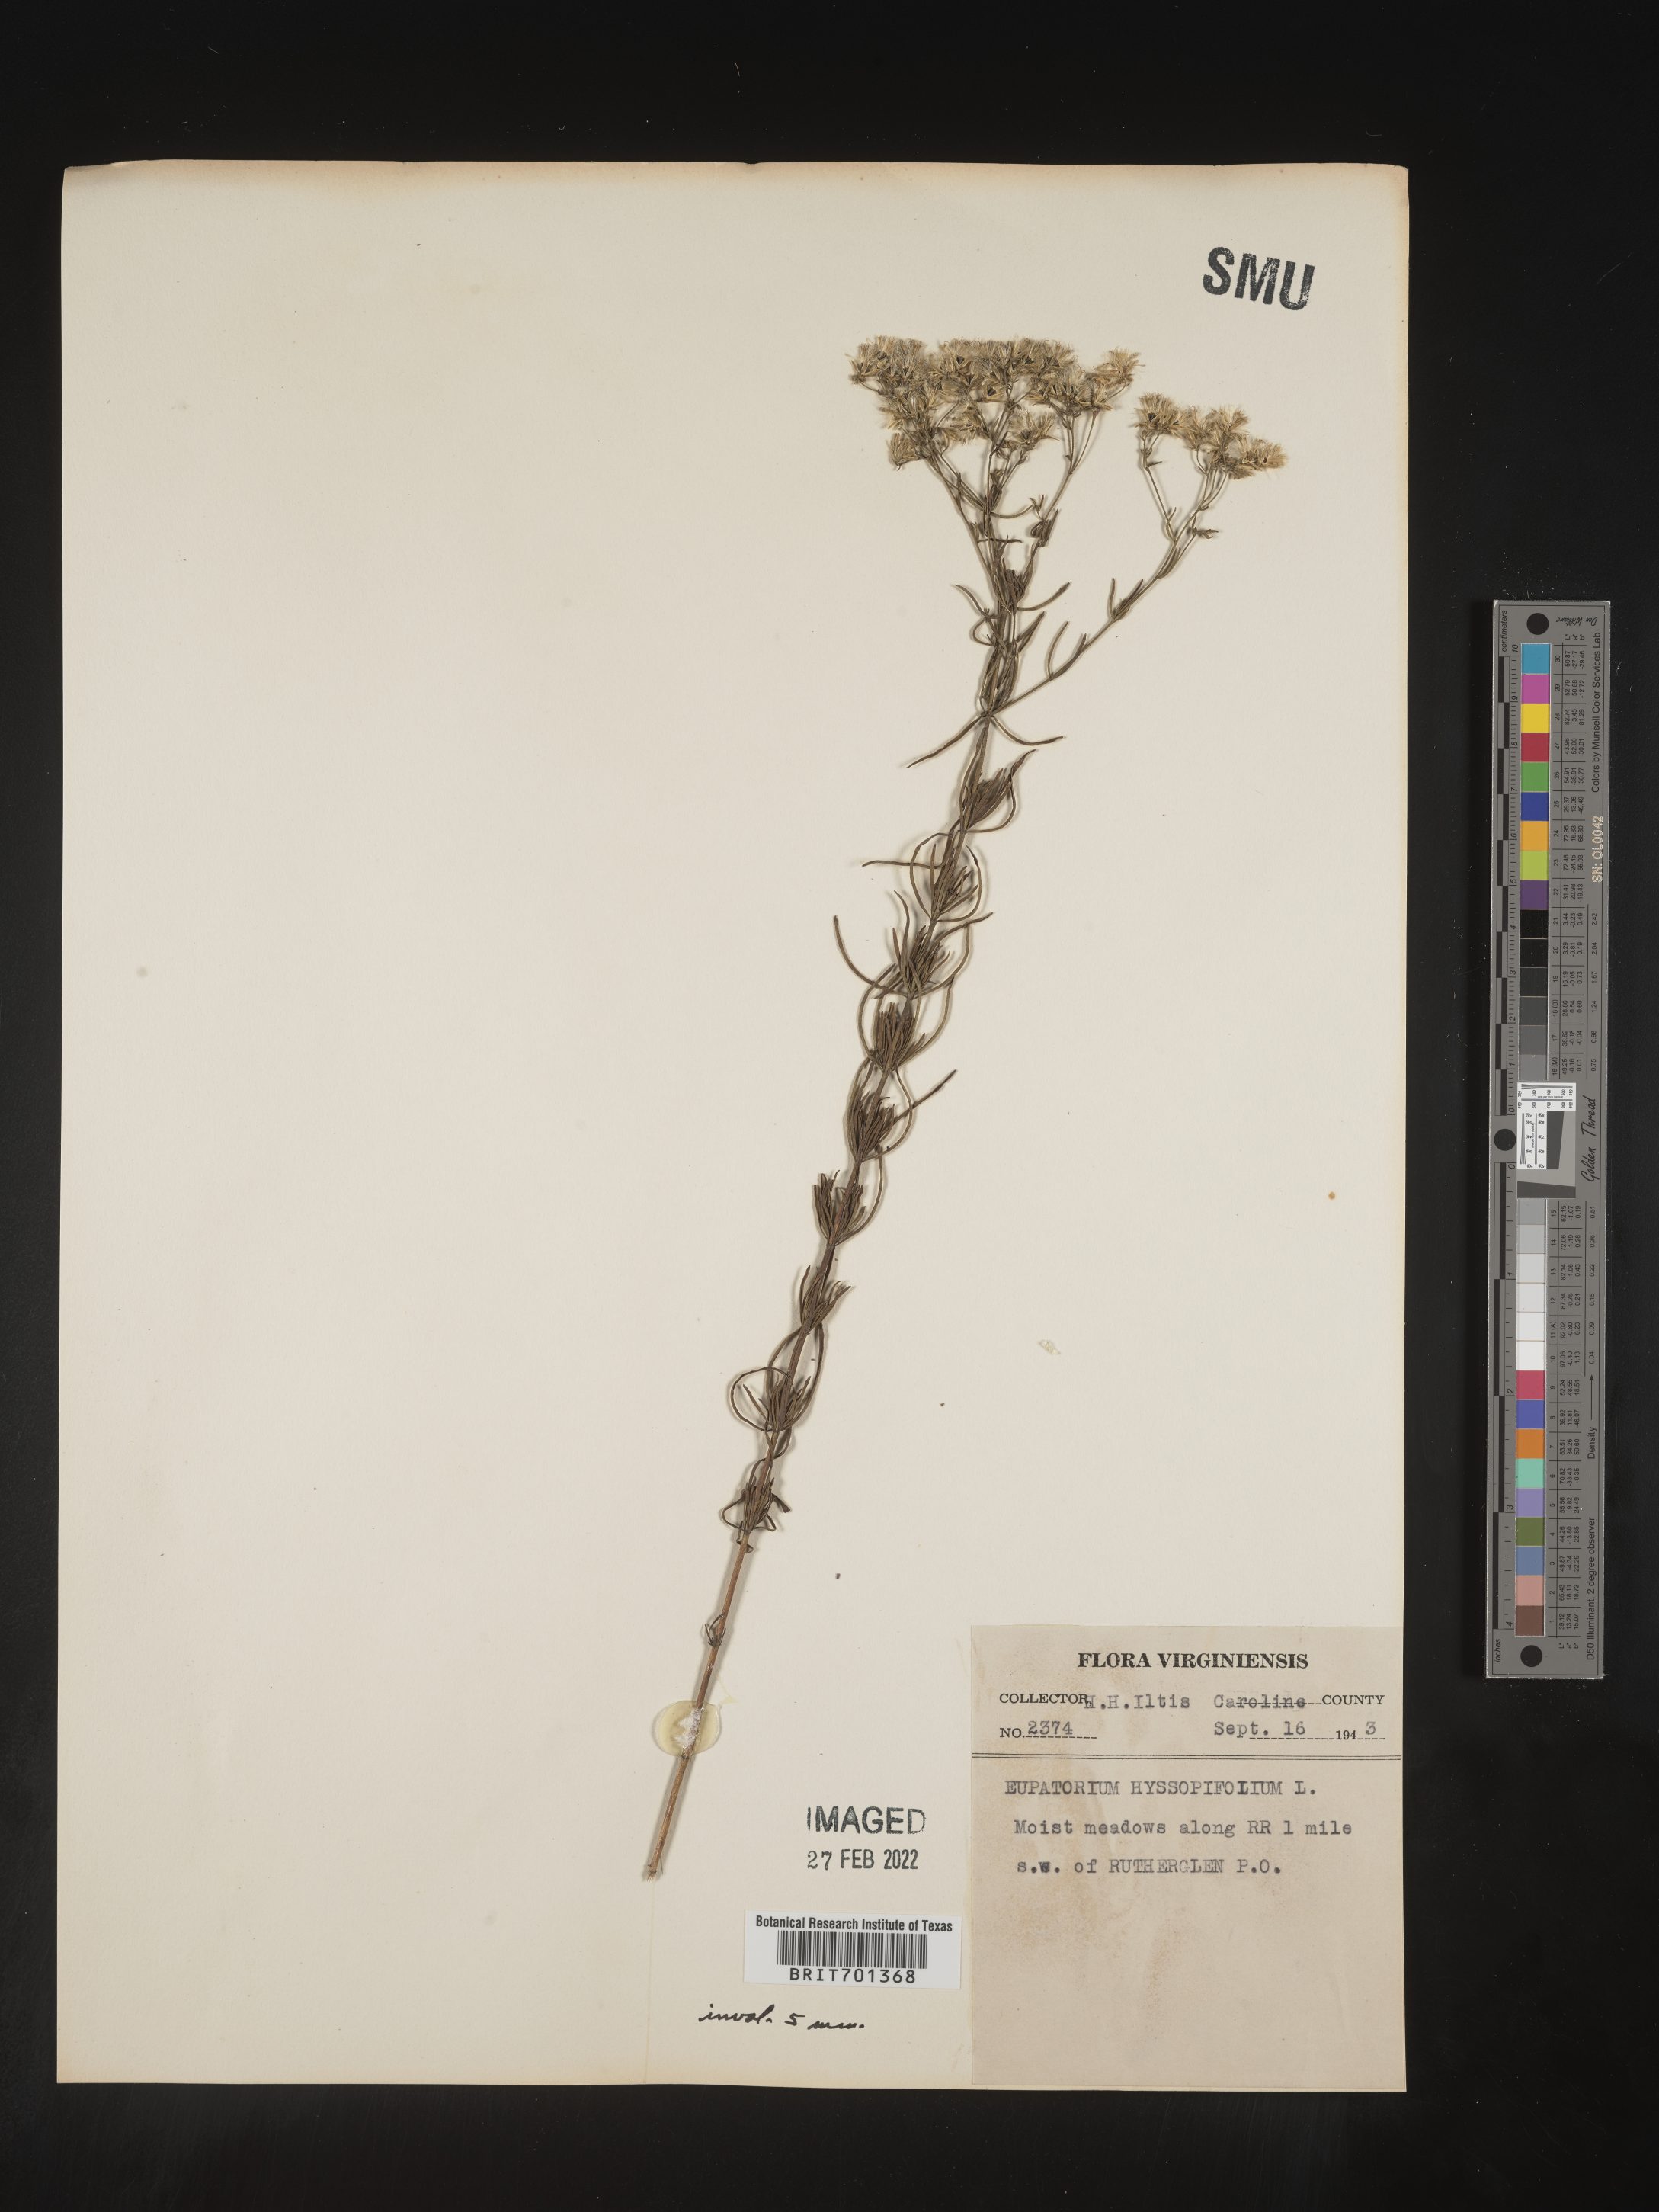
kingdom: Plantae
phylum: Tracheophyta
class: Magnoliopsida
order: Asterales
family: Asteraceae
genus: Eupatorium
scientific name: Eupatorium hyssopifolium
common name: Hyssop-leaf thoroughwort
